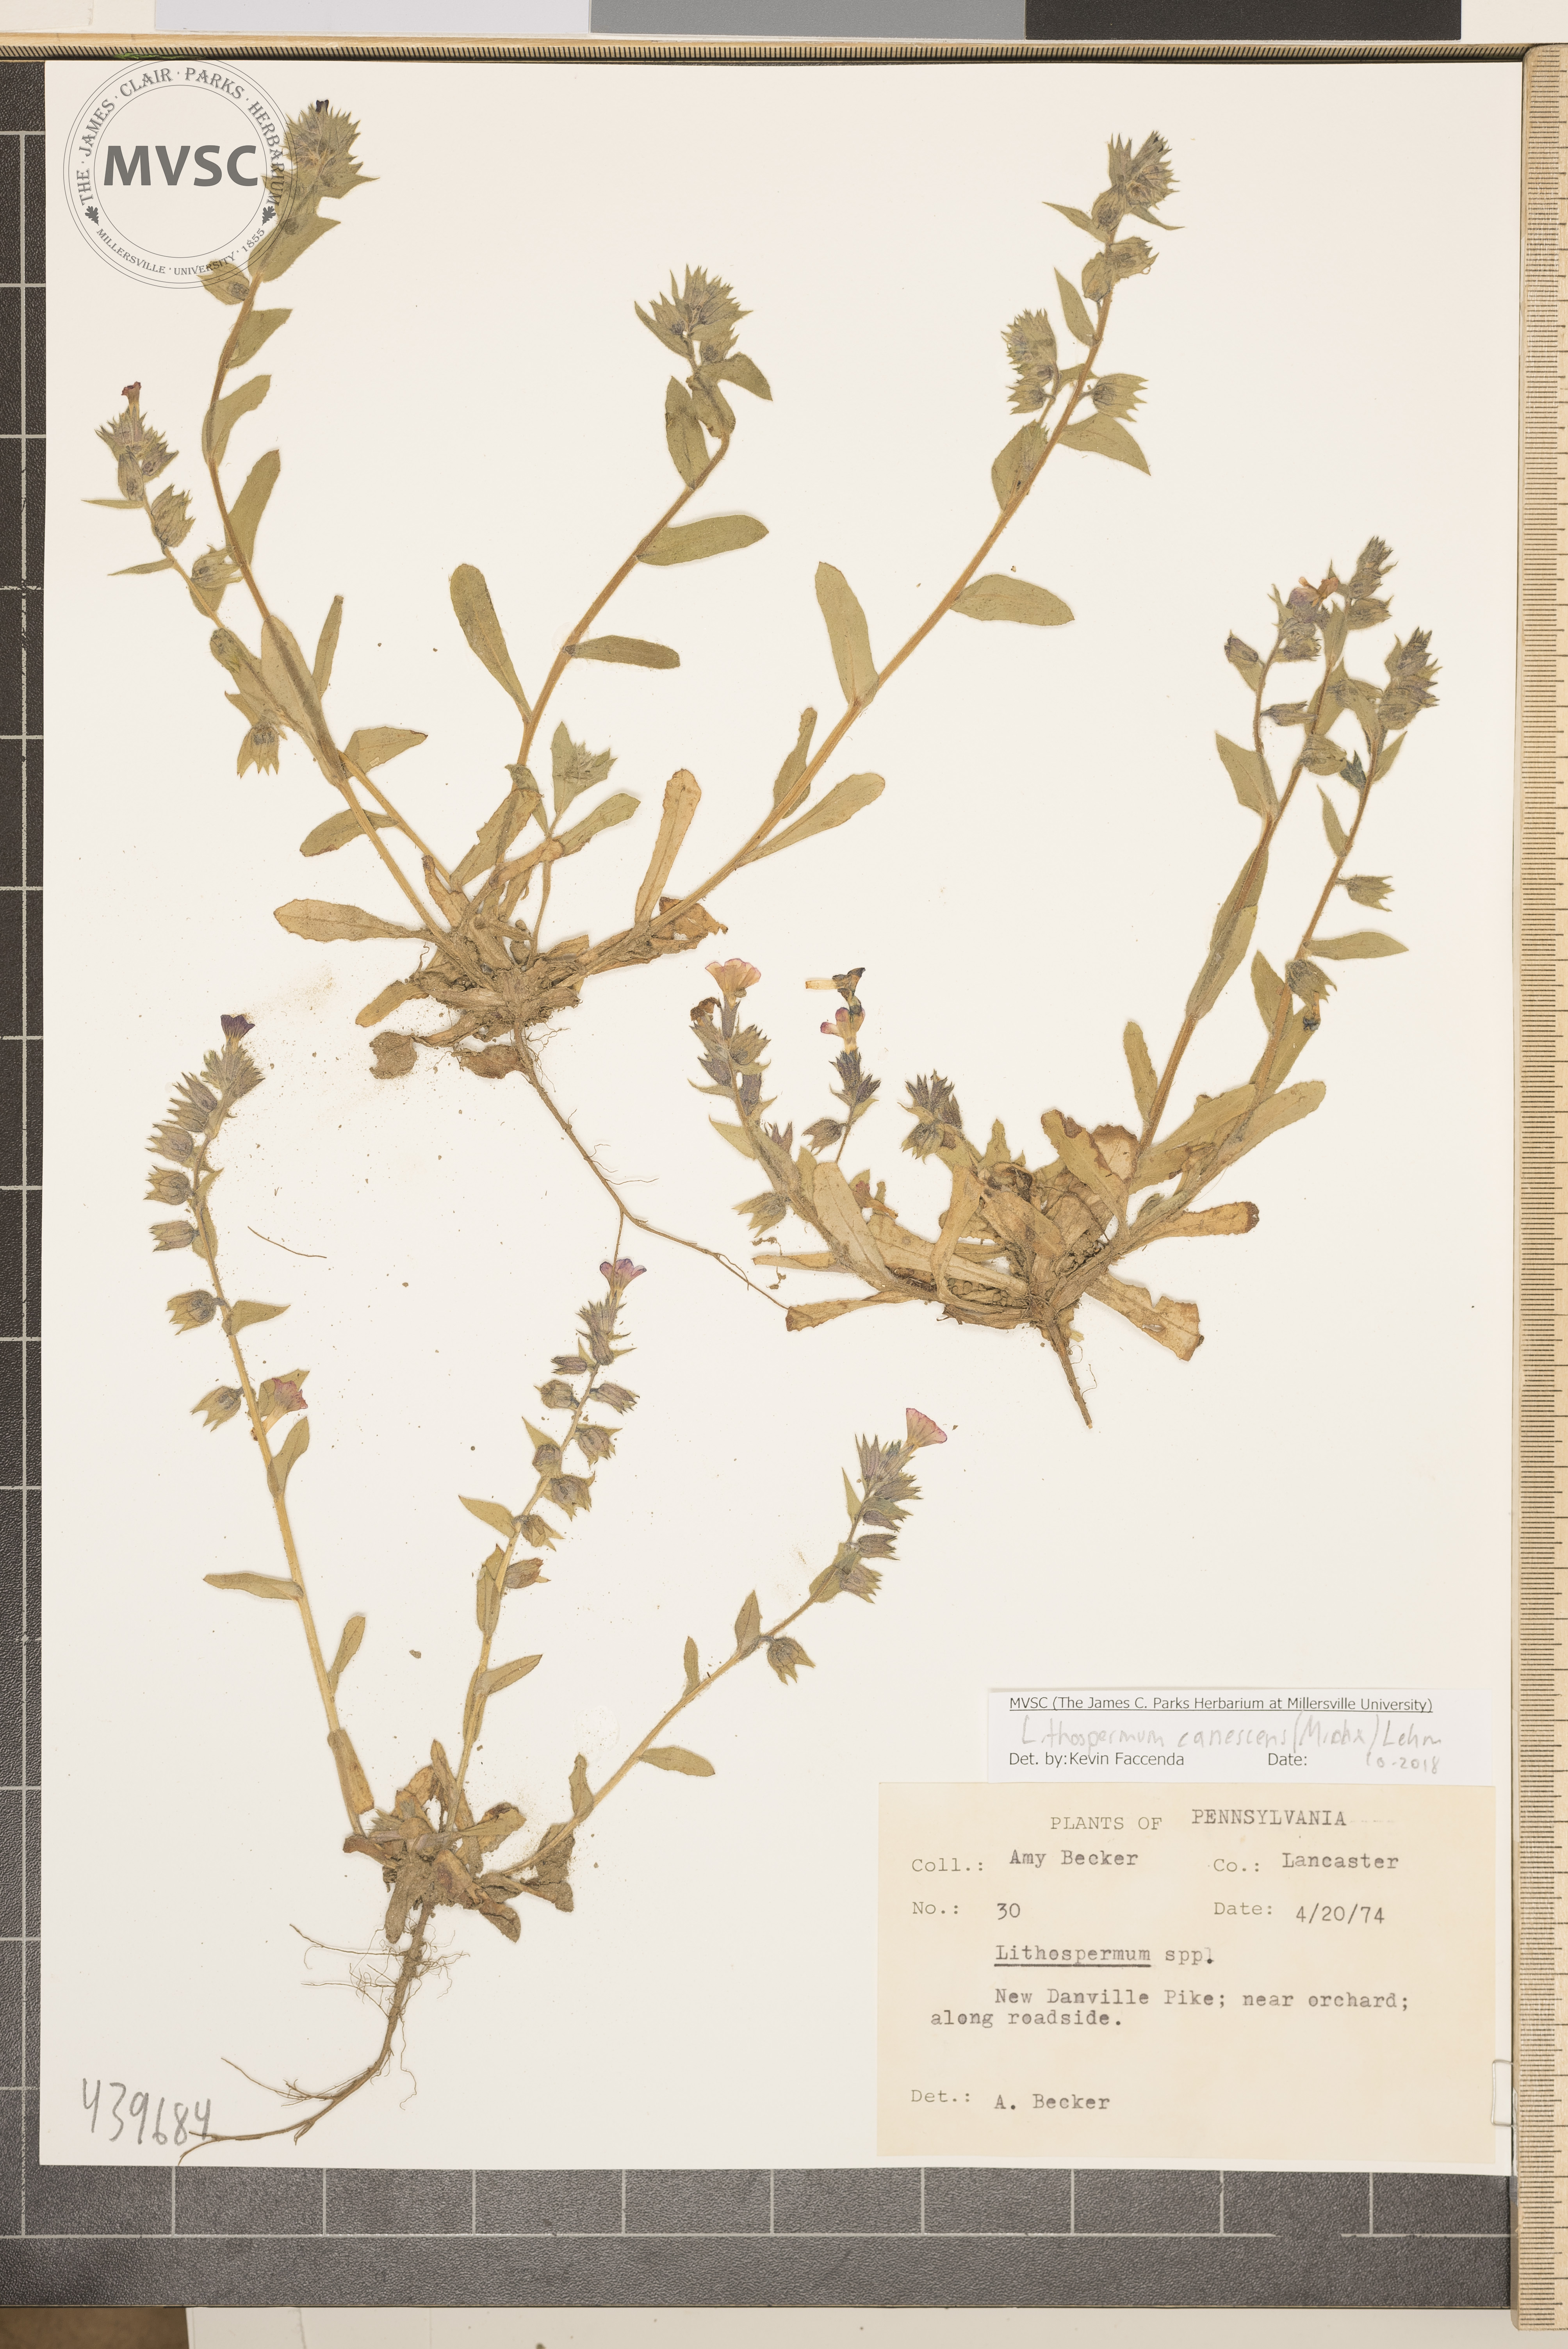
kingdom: Plantae
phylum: Tracheophyta
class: Magnoliopsida
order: Boraginales
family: Boraginaceae
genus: Lithospermum
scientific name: Lithospermum canescens
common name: Hoary puccoon
